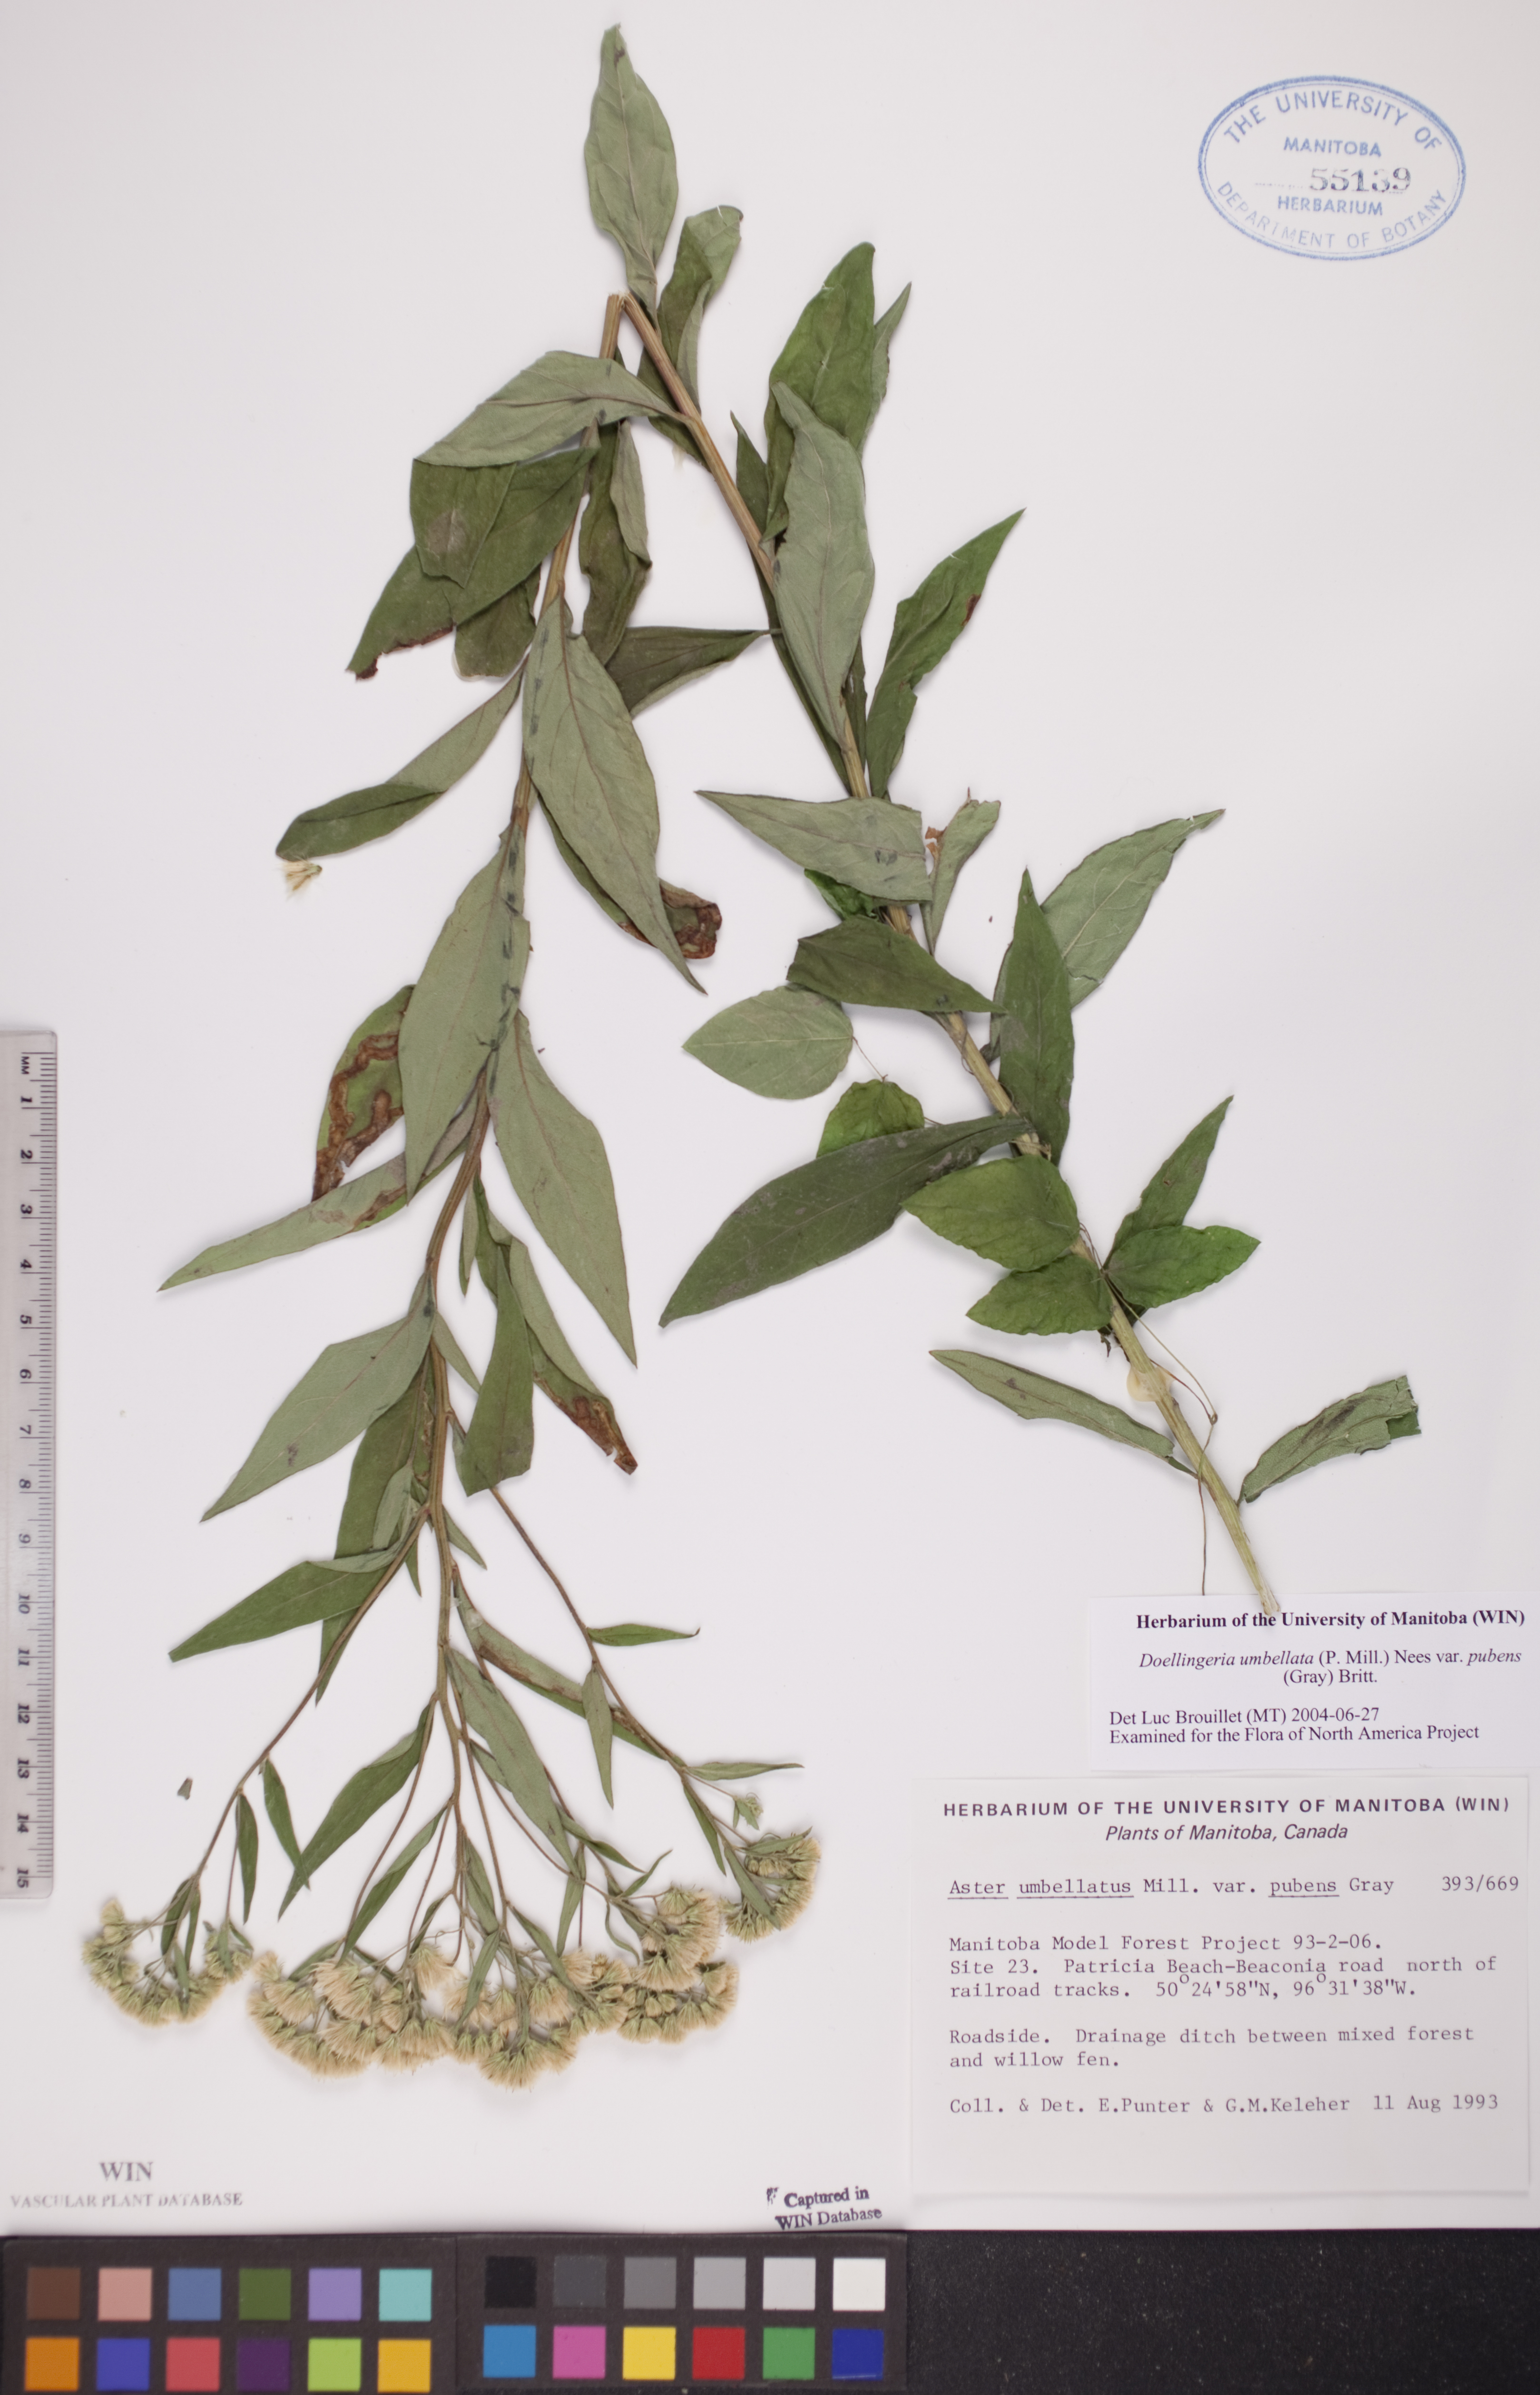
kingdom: Plantae
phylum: Tracheophyta
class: Magnoliopsida
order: Asterales
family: Asteraceae
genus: Doellingeria
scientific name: Doellingeria umbellata
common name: Flat-top white aster
